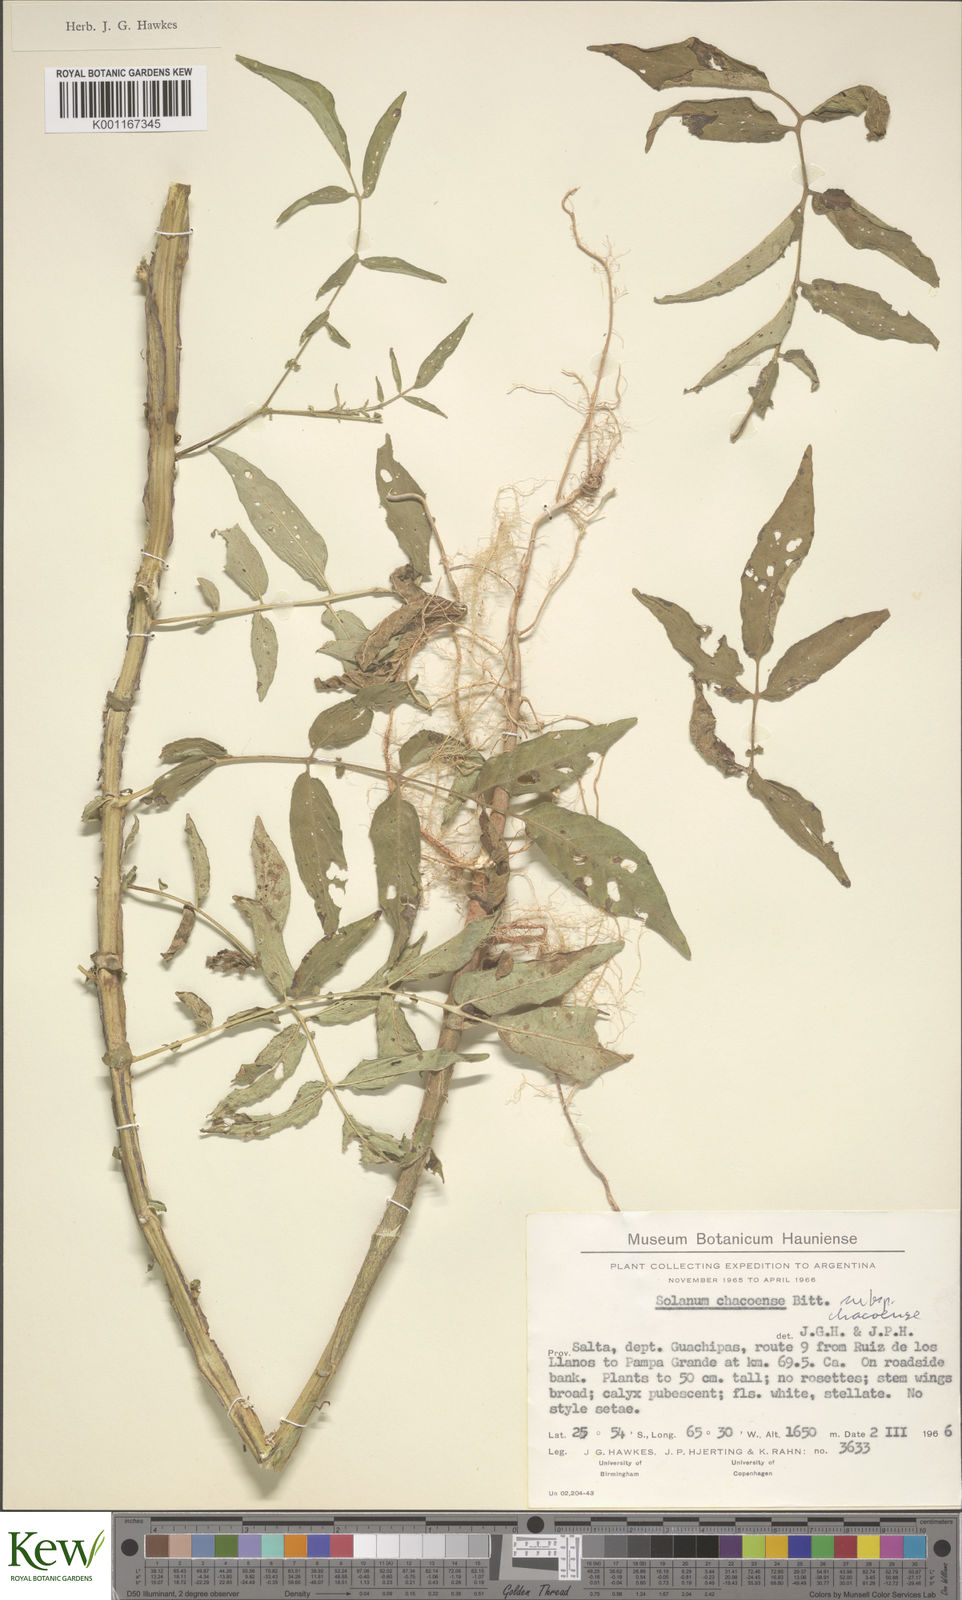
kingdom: Plantae
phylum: Tracheophyta
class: Magnoliopsida
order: Solanales
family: Solanaceae
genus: Solanum
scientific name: Solanum chacoense
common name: Chaco potato
